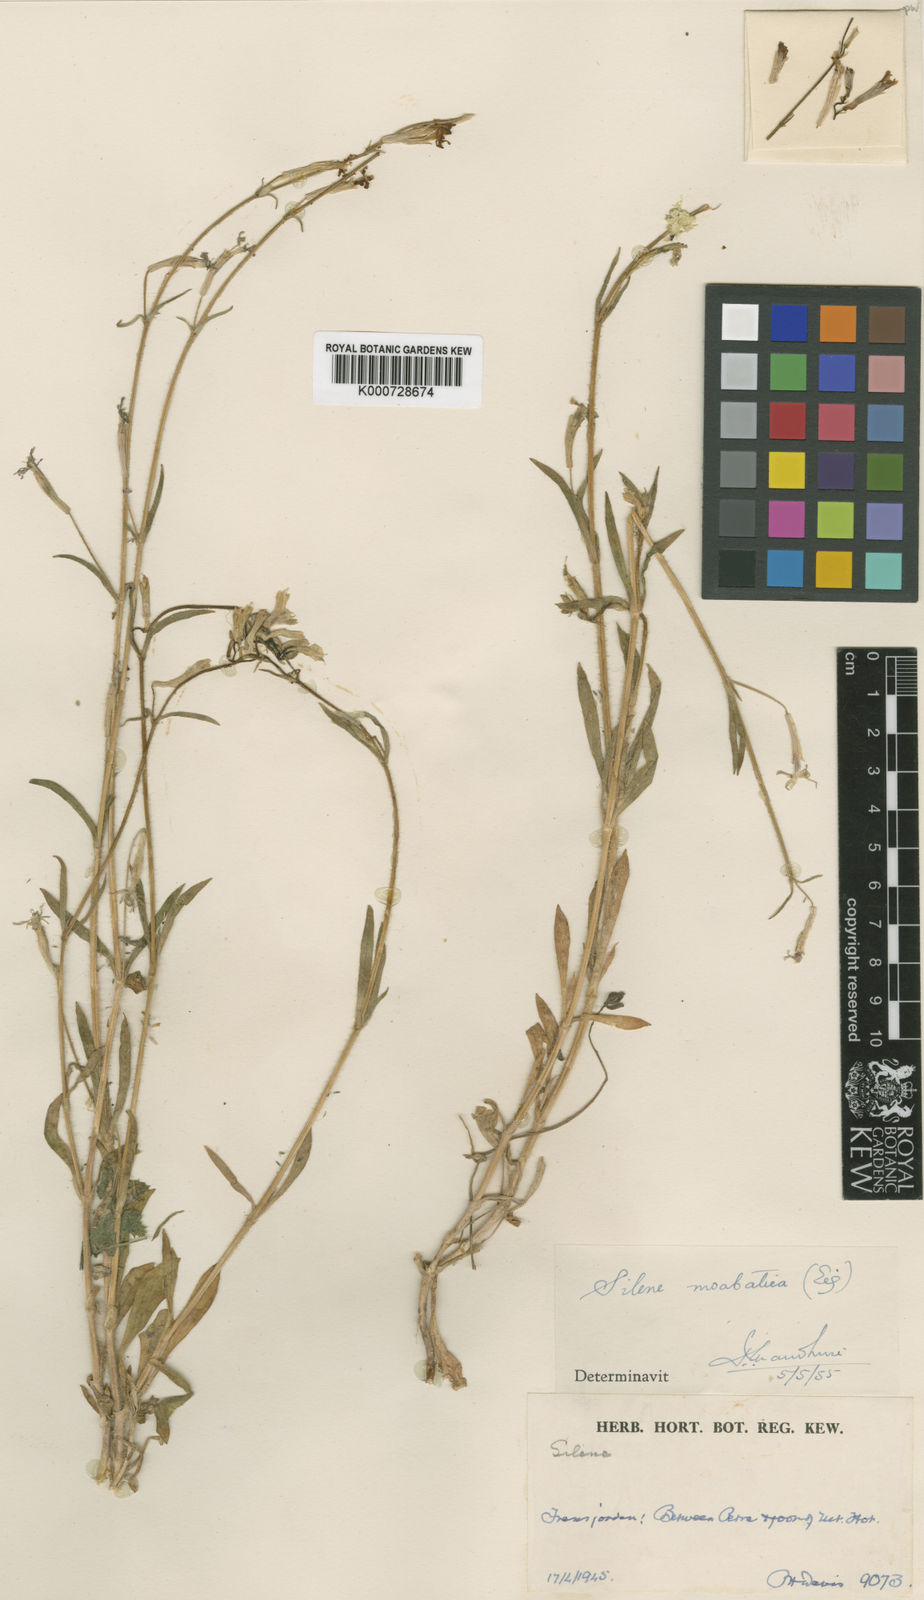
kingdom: Plantae
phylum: Tracheophyta
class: Magnoliopsida
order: Caryophyllales
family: Caryophyllaceae
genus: Silene
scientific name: Silene moabitica
